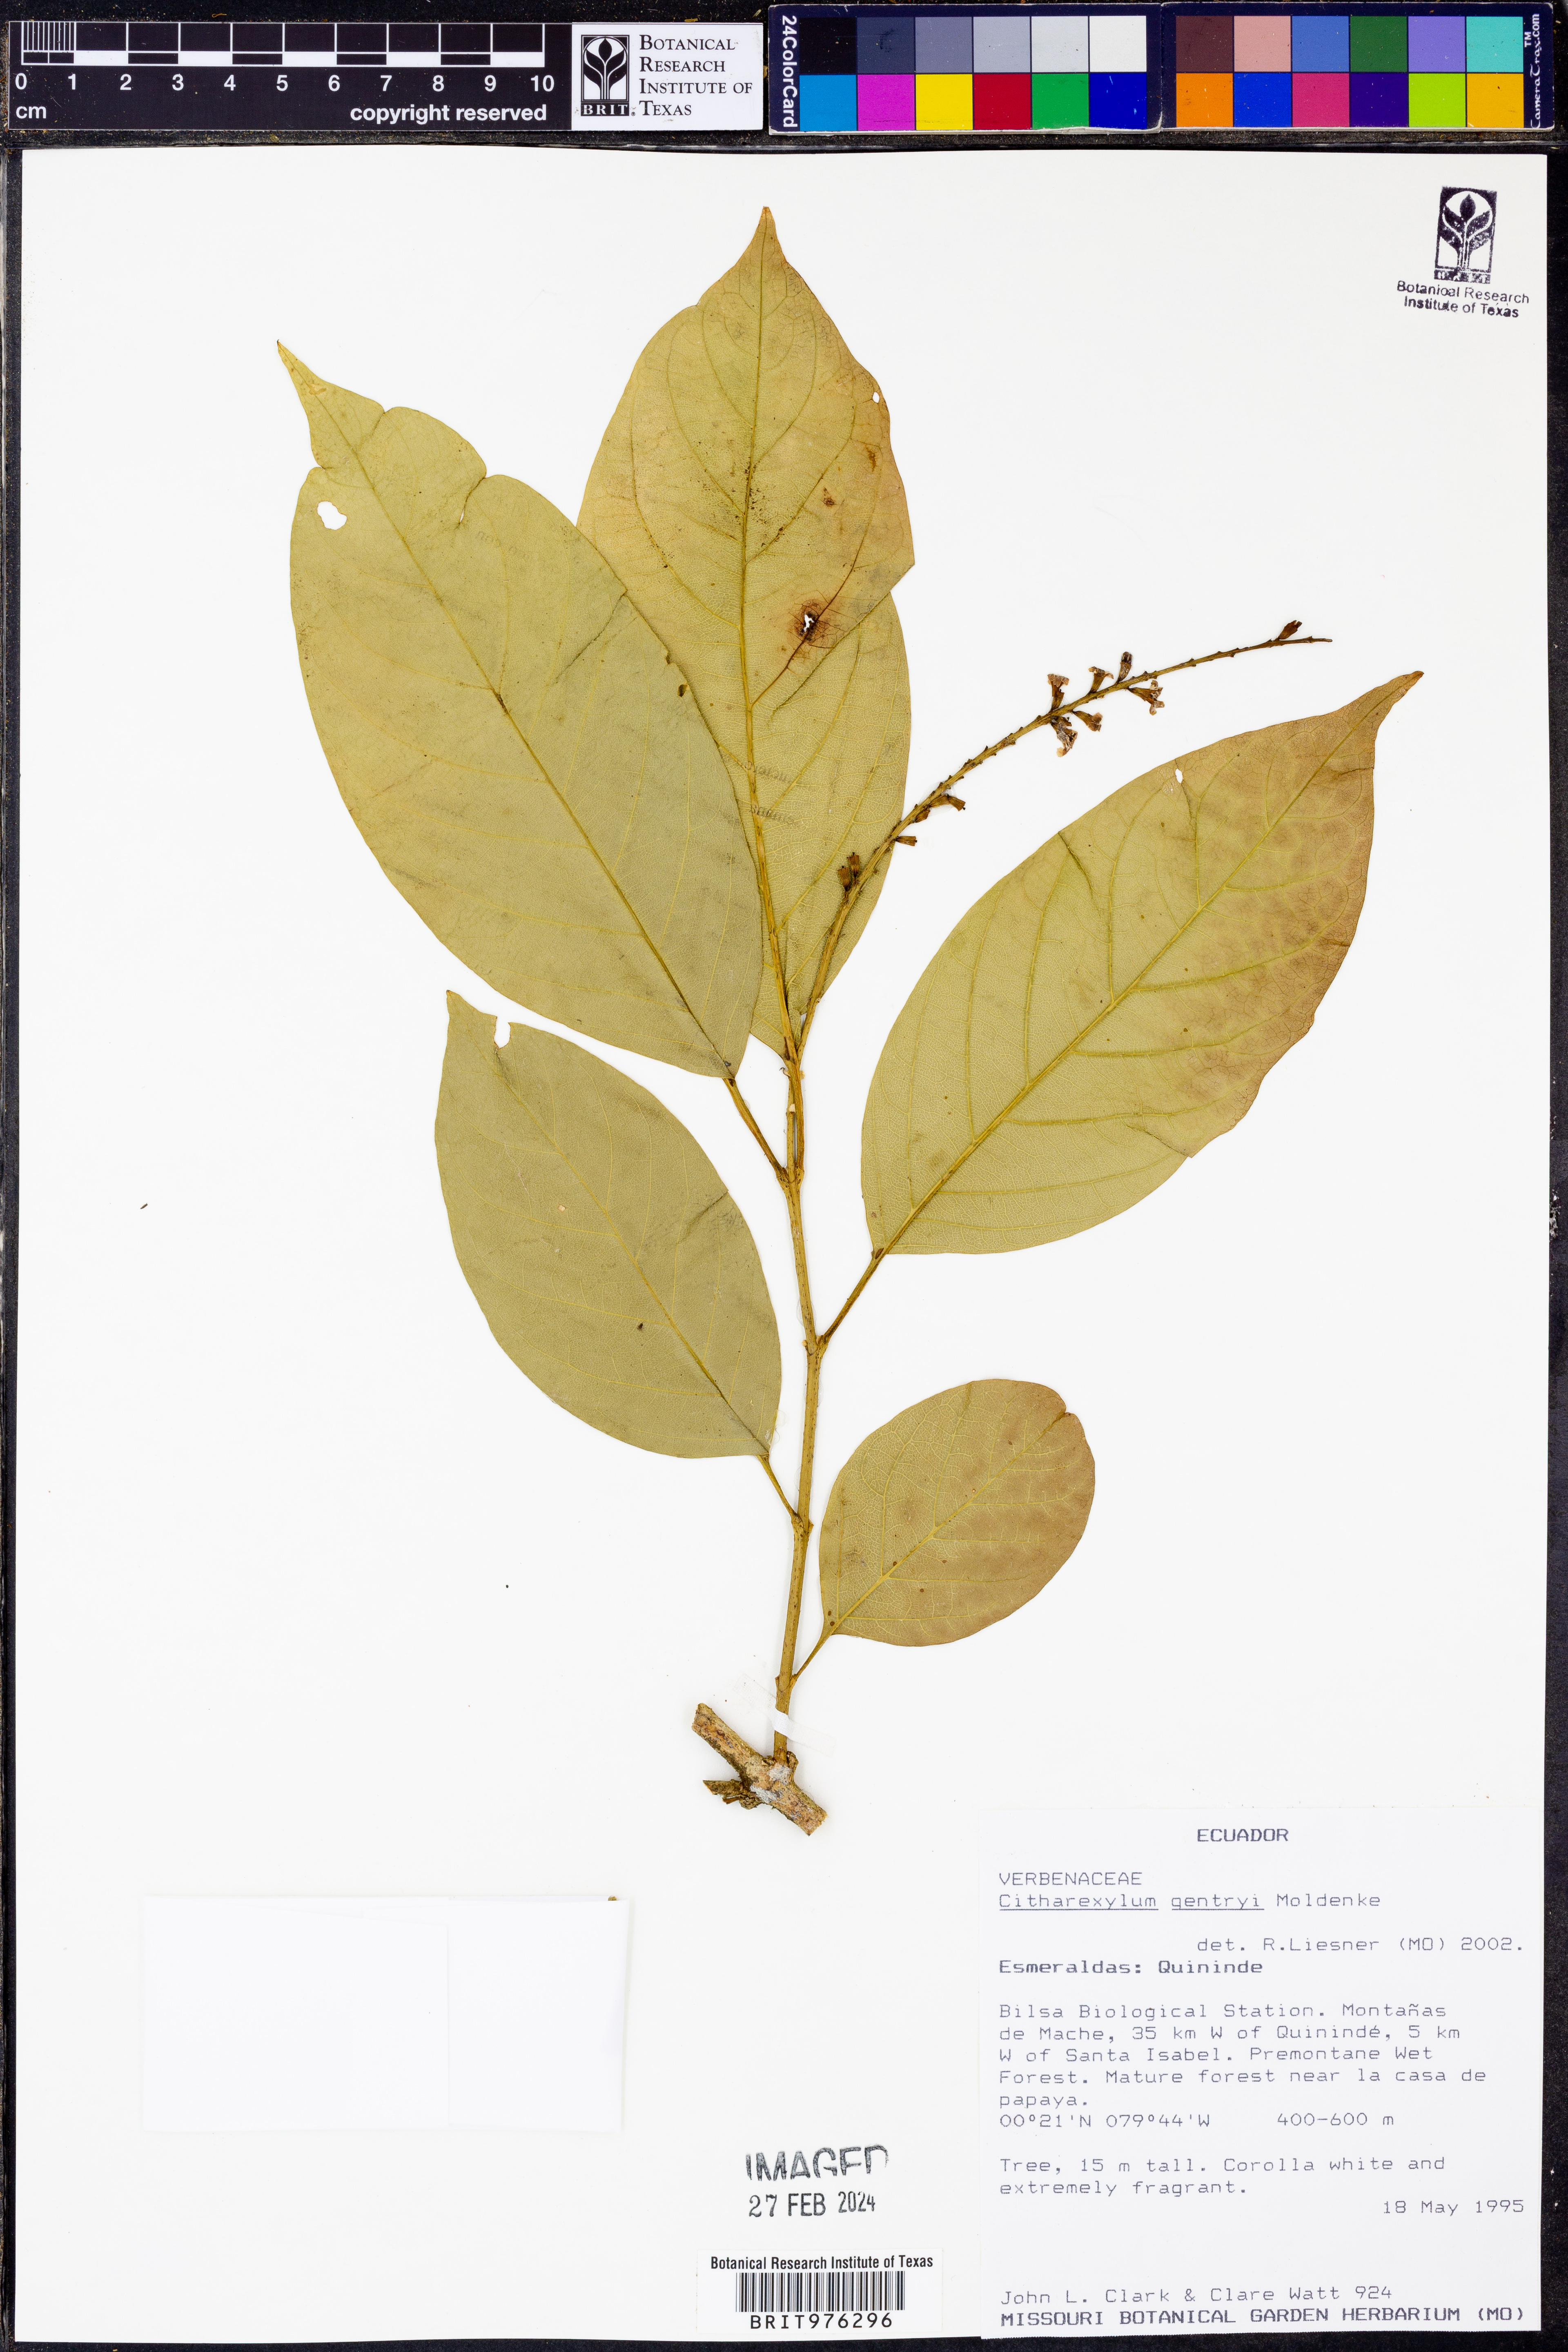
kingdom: Plantae
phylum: Tracheophyta
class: Magnoliopsida
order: Lamiales
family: Verbenaceae
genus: Citharexylum
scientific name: Citharexylum
